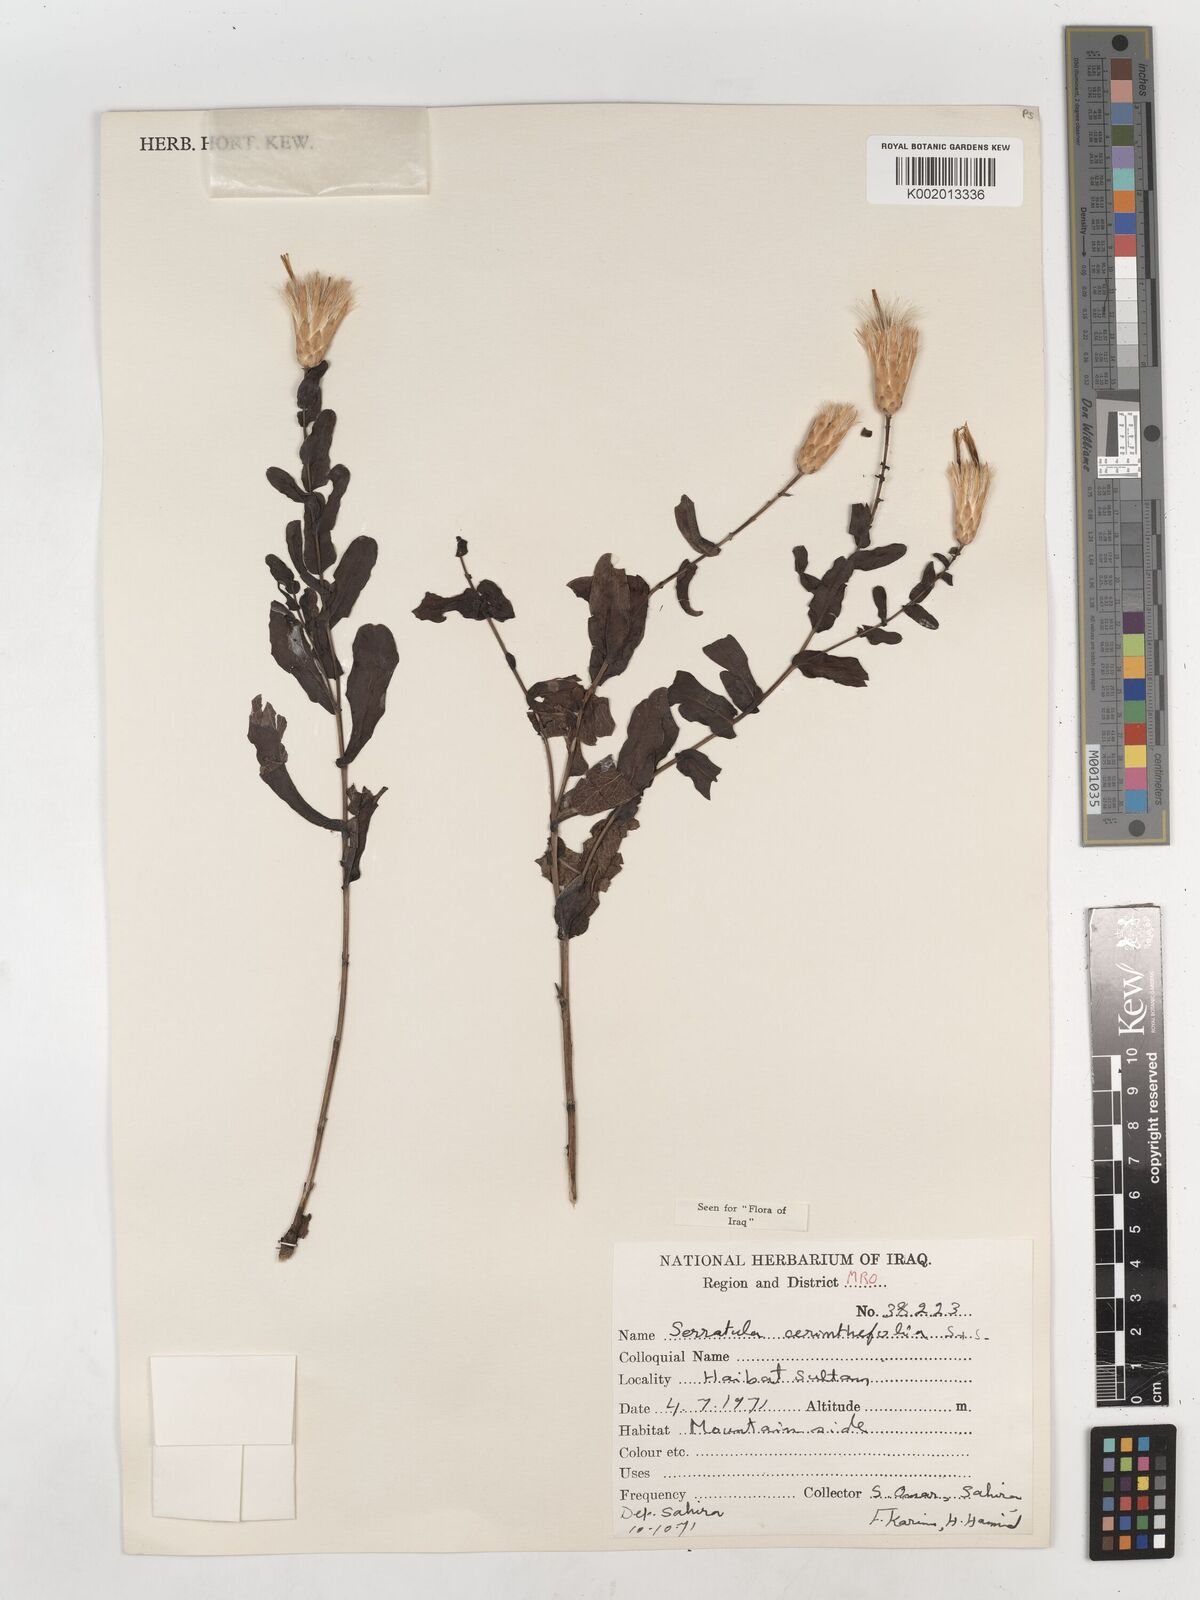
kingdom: Plantae
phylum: Tracheophyta
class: Magnoliopsida
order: Asterales
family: Asteraceae
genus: Klasea
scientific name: Klasea cerinthifolia
